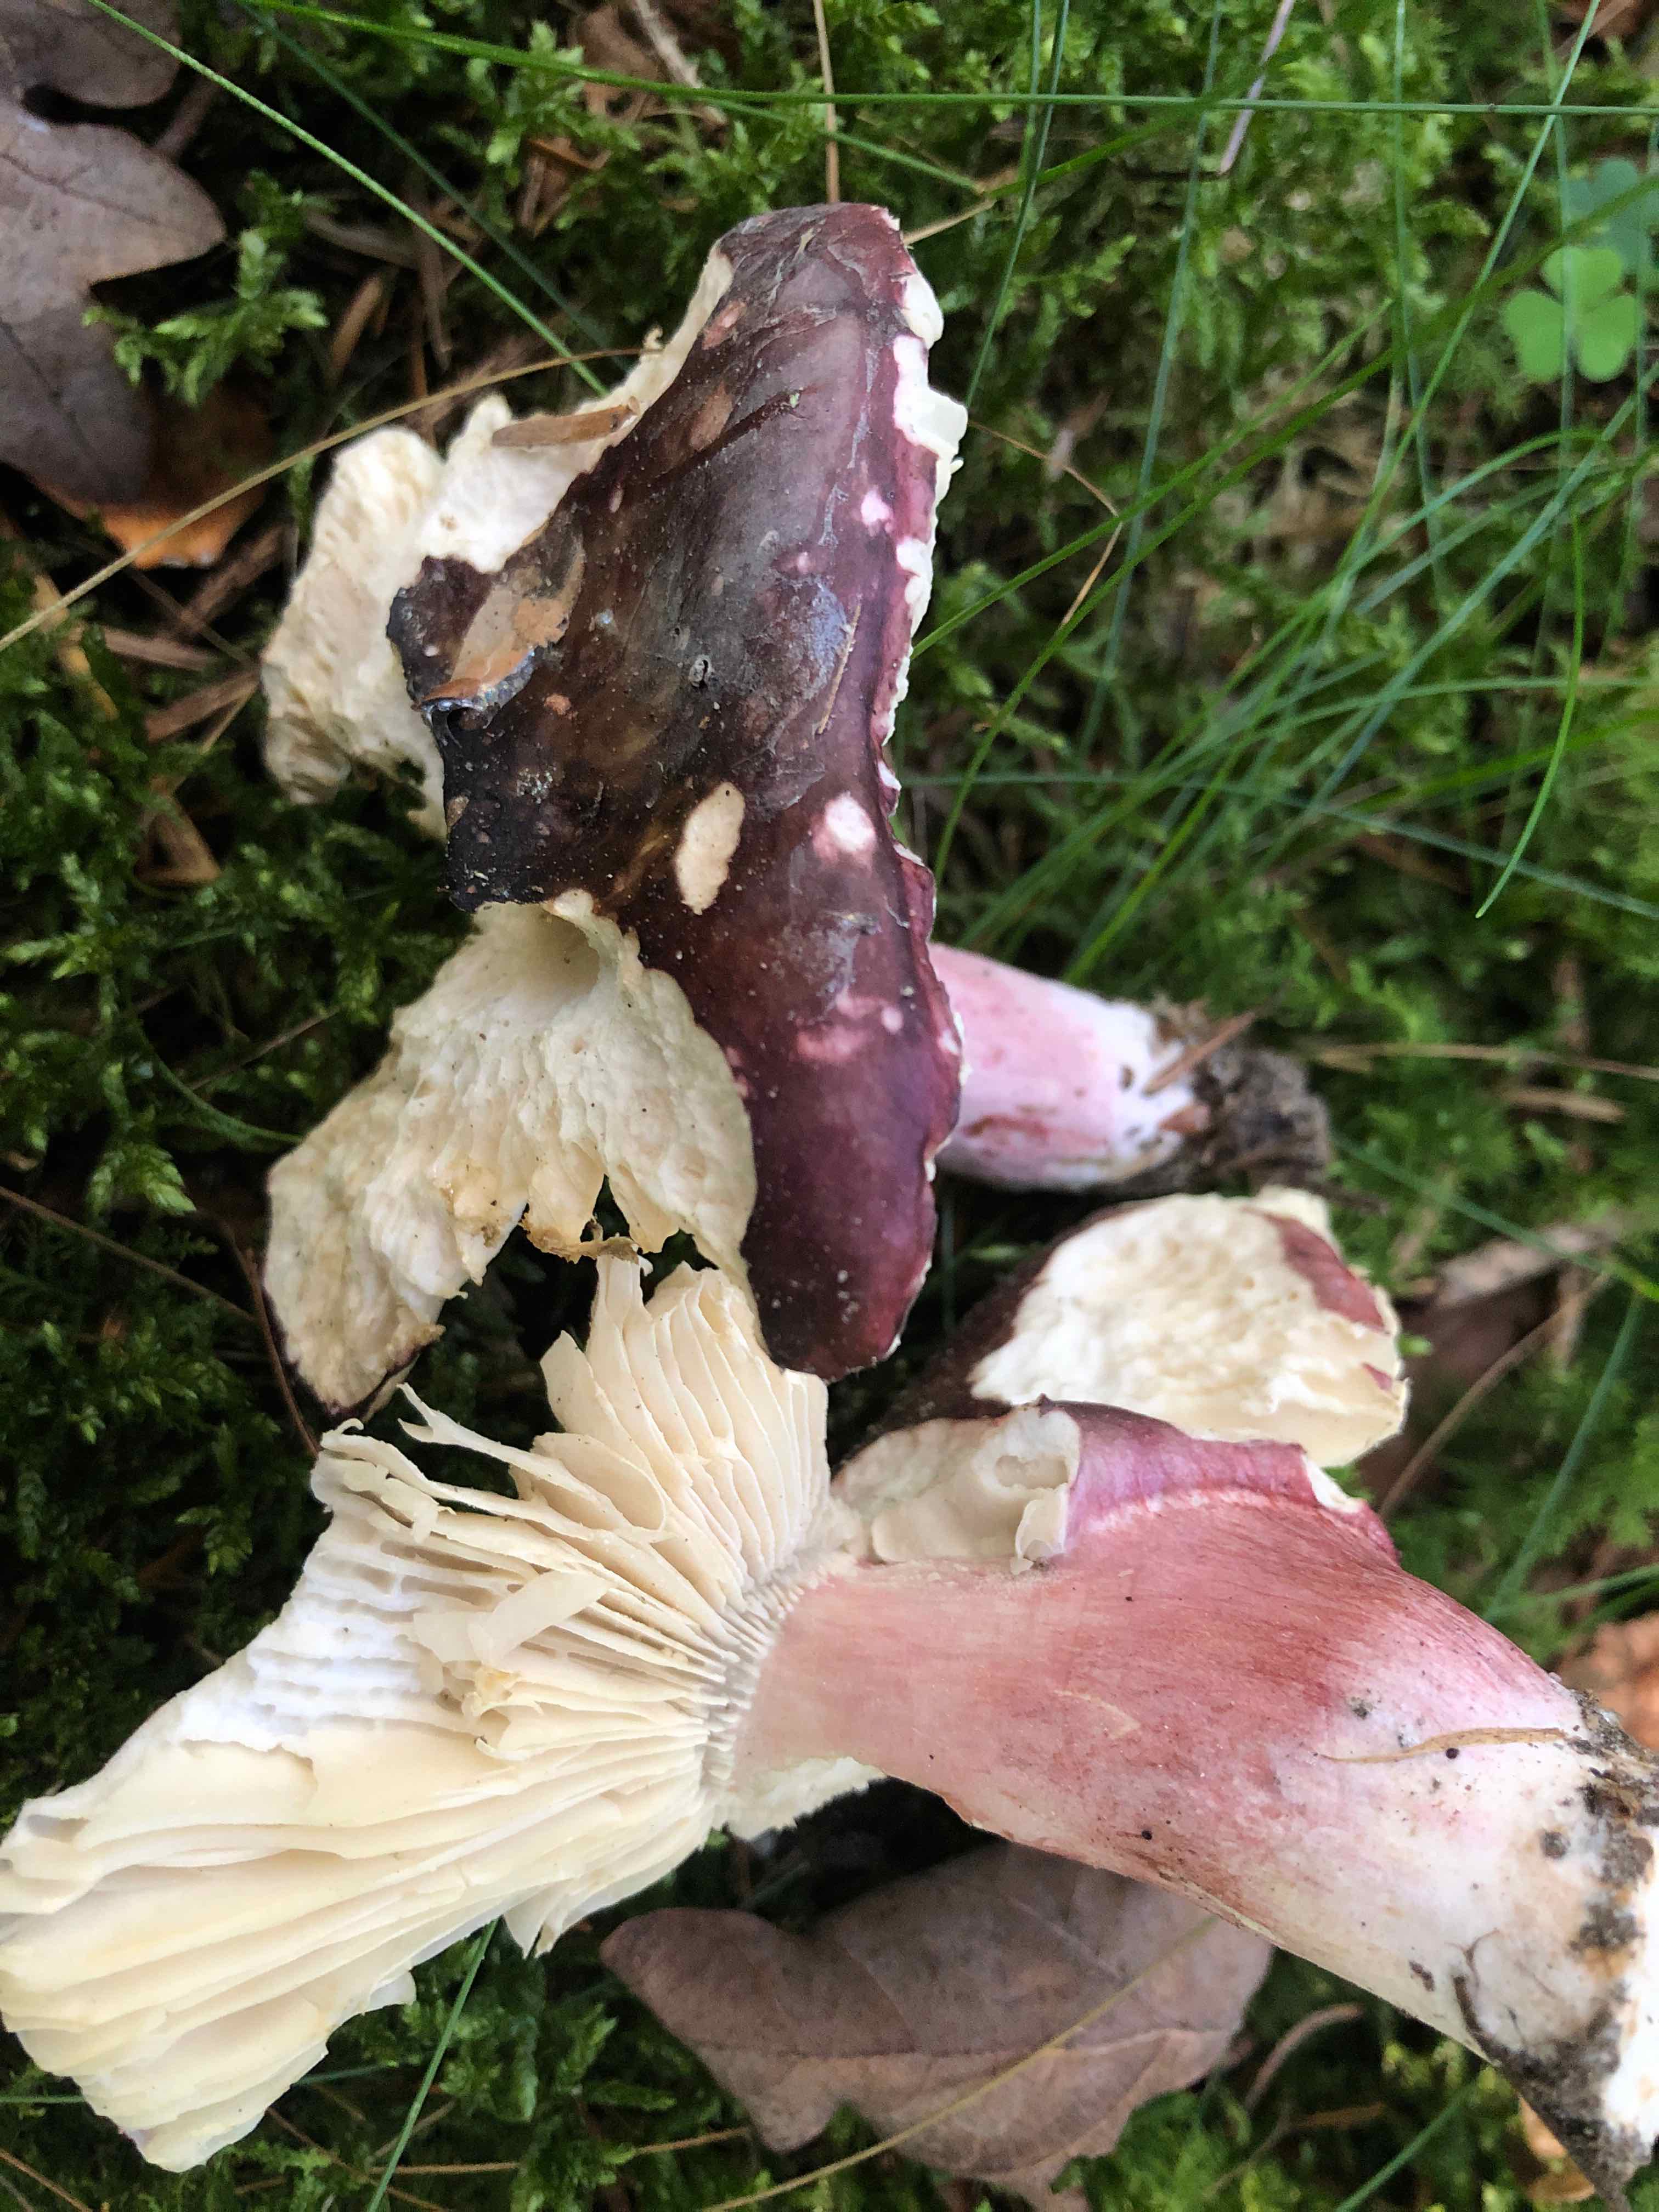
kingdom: Fungi
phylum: Basidiomycota
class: Agaricomycetes
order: Russulales
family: Russulaceae
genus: Russula
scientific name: Russula queletii
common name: Quélets skørhat
